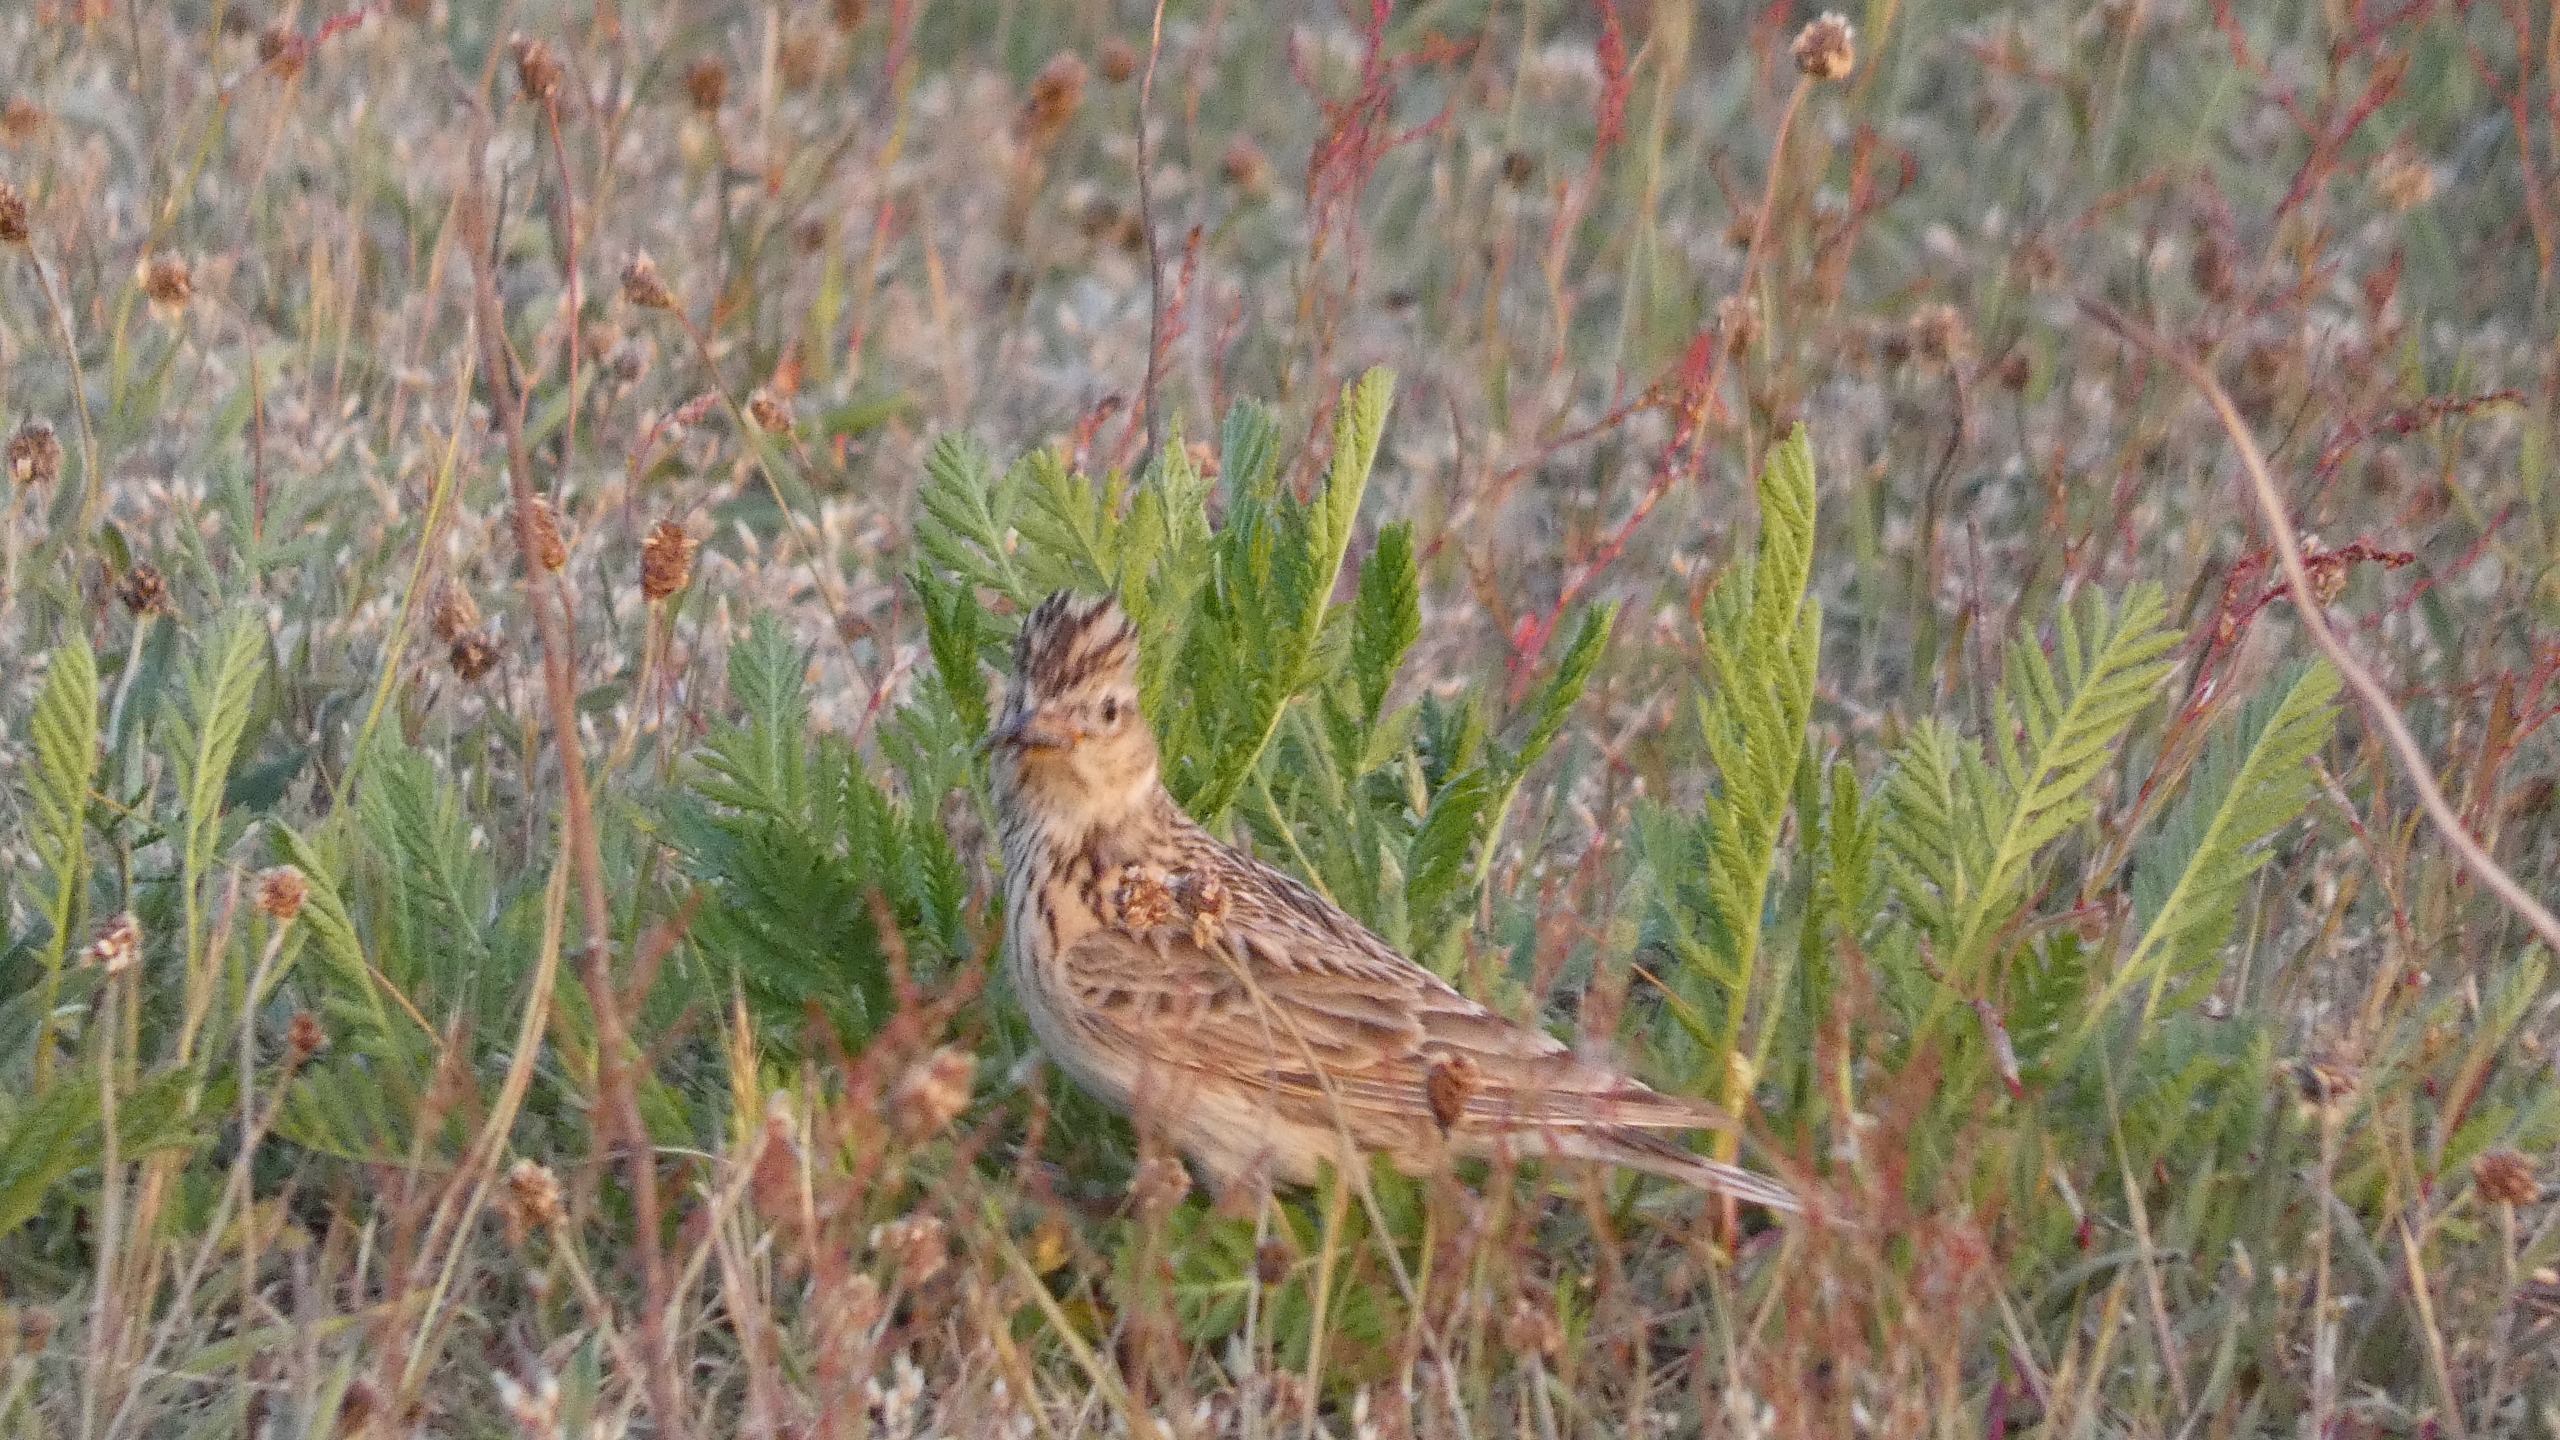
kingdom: Animalia
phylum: Chordata
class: Aves
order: Passeriformes
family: Alaudidae
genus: Alauda
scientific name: Alauda arvensis
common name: Sanglærke
